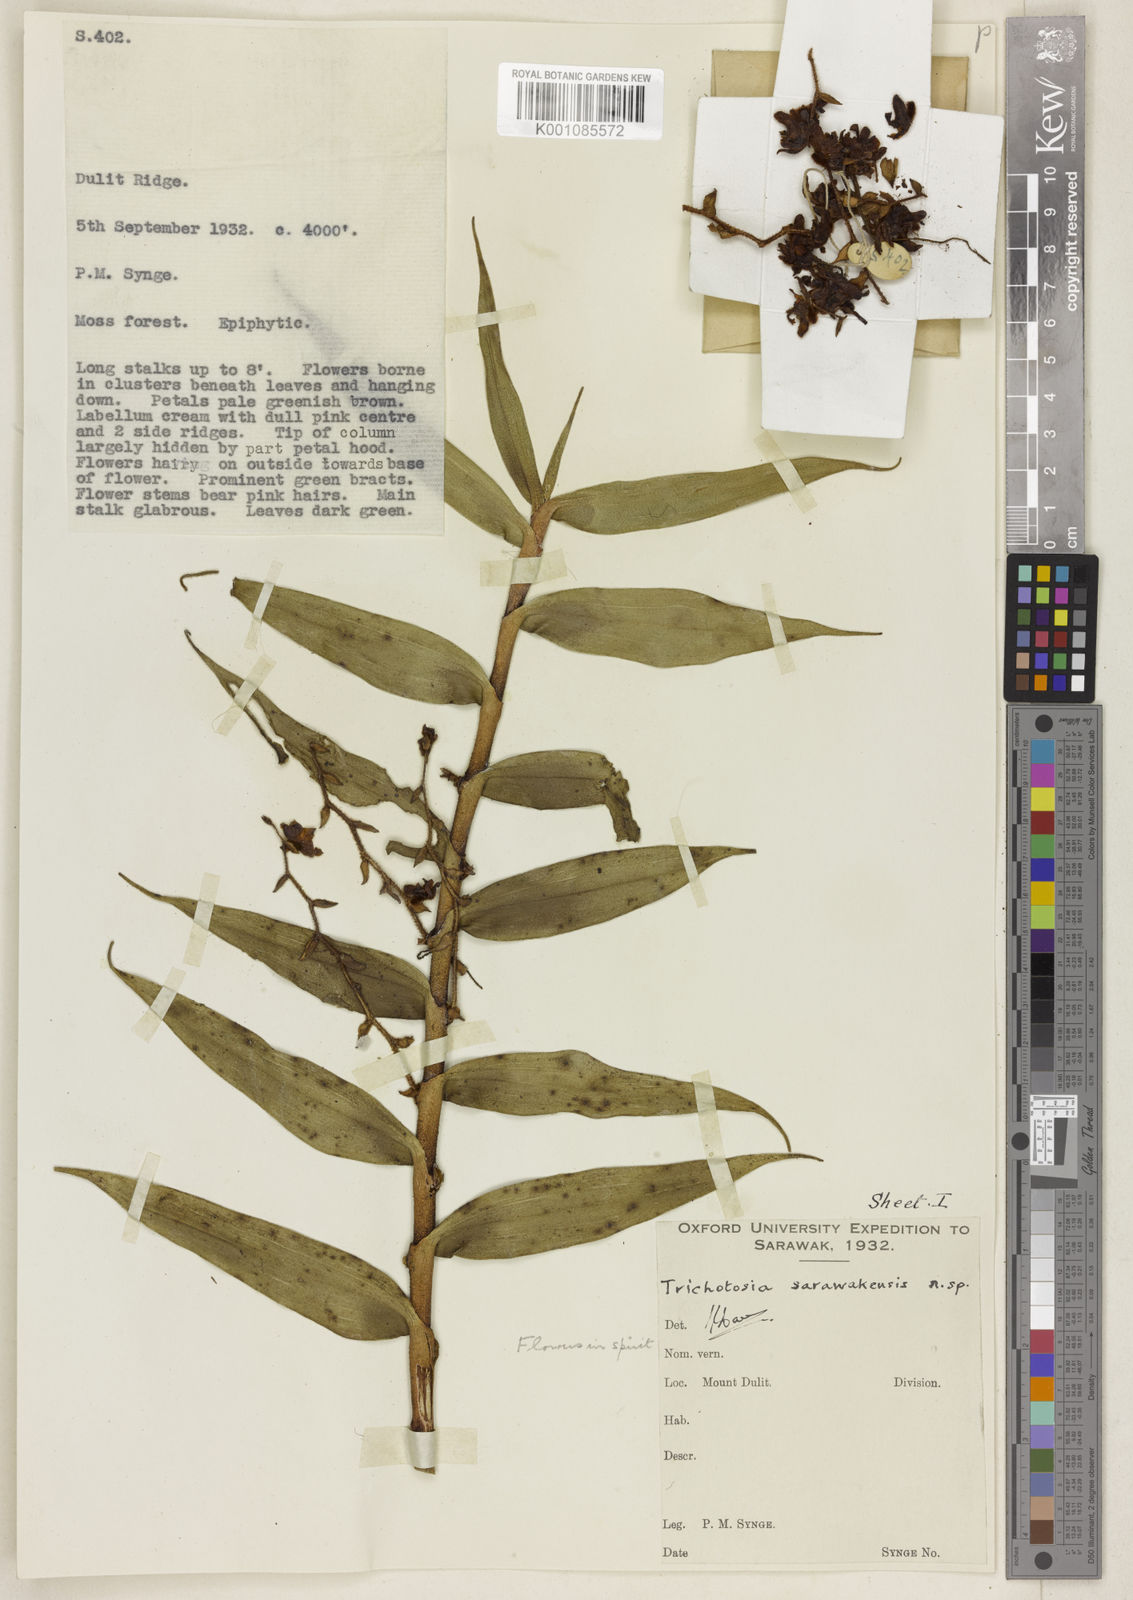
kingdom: Plantae
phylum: Tracheophyta
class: Liliopsida
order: Asparagales
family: Orchidaceae
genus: Trichotosia
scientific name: Trichotosia sarawakensis
